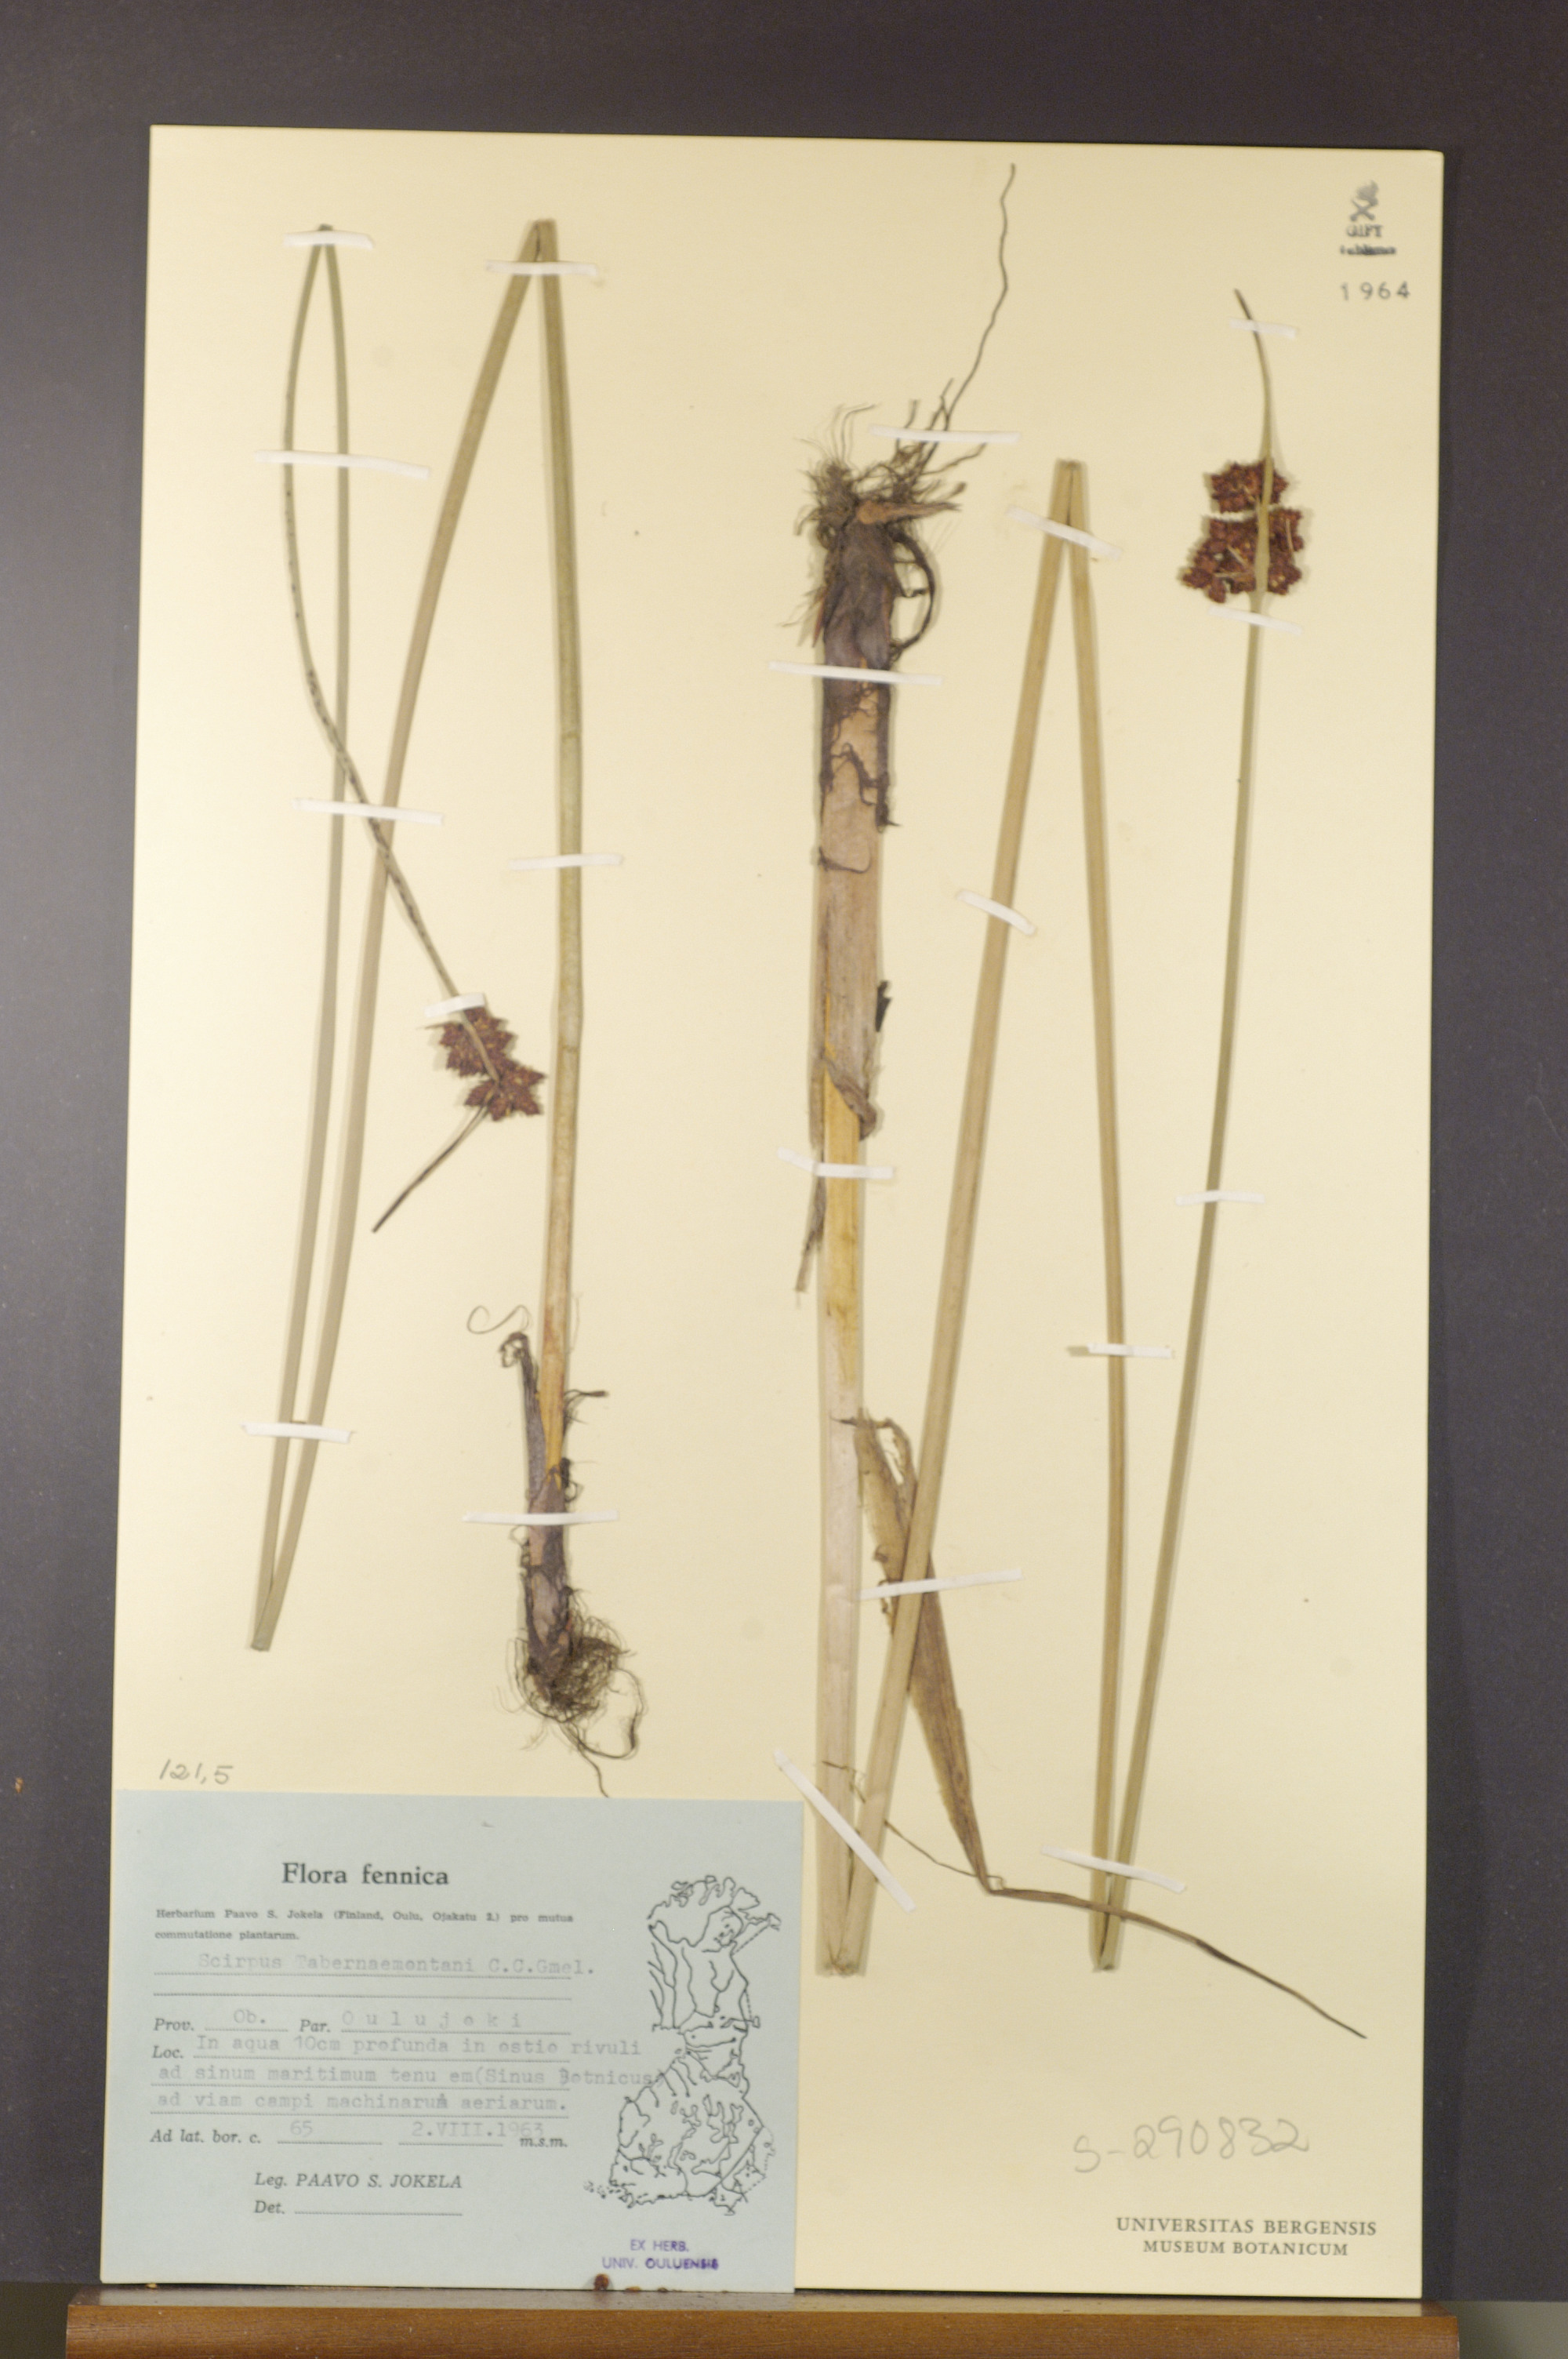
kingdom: Plantae
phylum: Tracheophyta
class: Liliopsida
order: Poales
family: Cyperaceae
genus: Schoenoplectus
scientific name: Schoenoplectus tabernaemontani
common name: Grey club-rush
